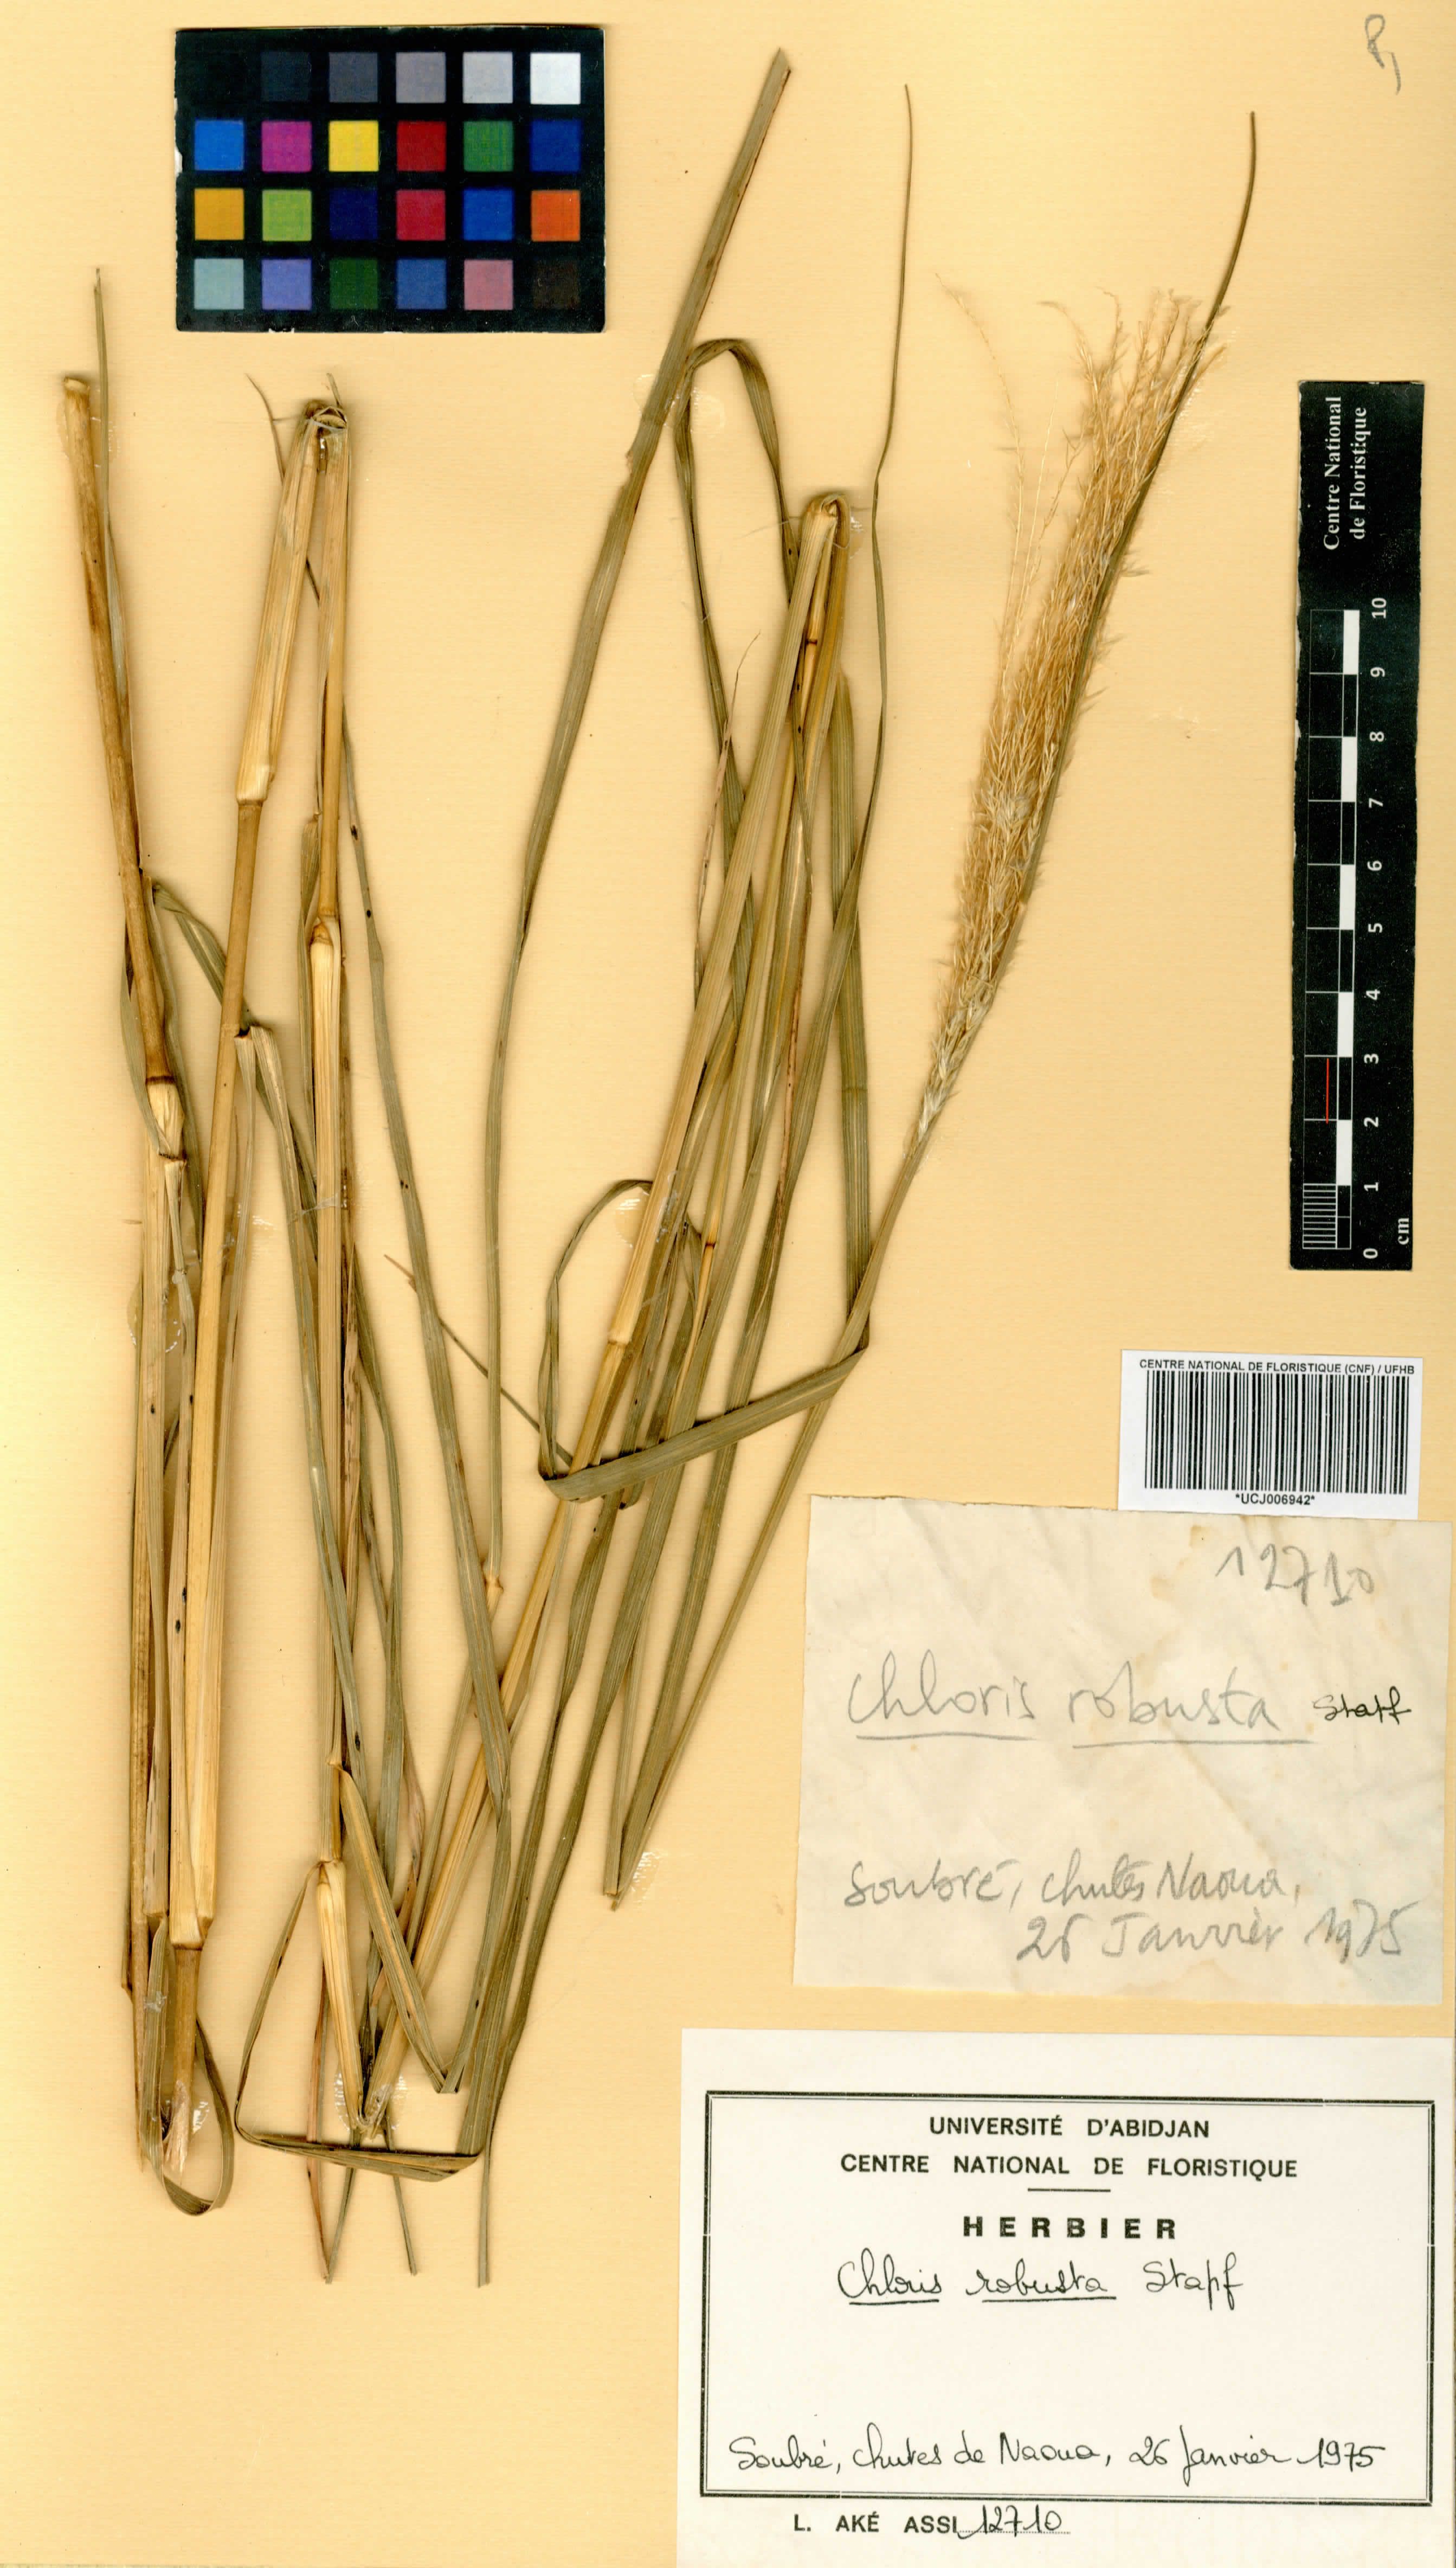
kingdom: Plantae
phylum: Tracheophyta
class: Liliopsida
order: Poales
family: Poaceae
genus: Chloris
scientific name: Chloris robusta
